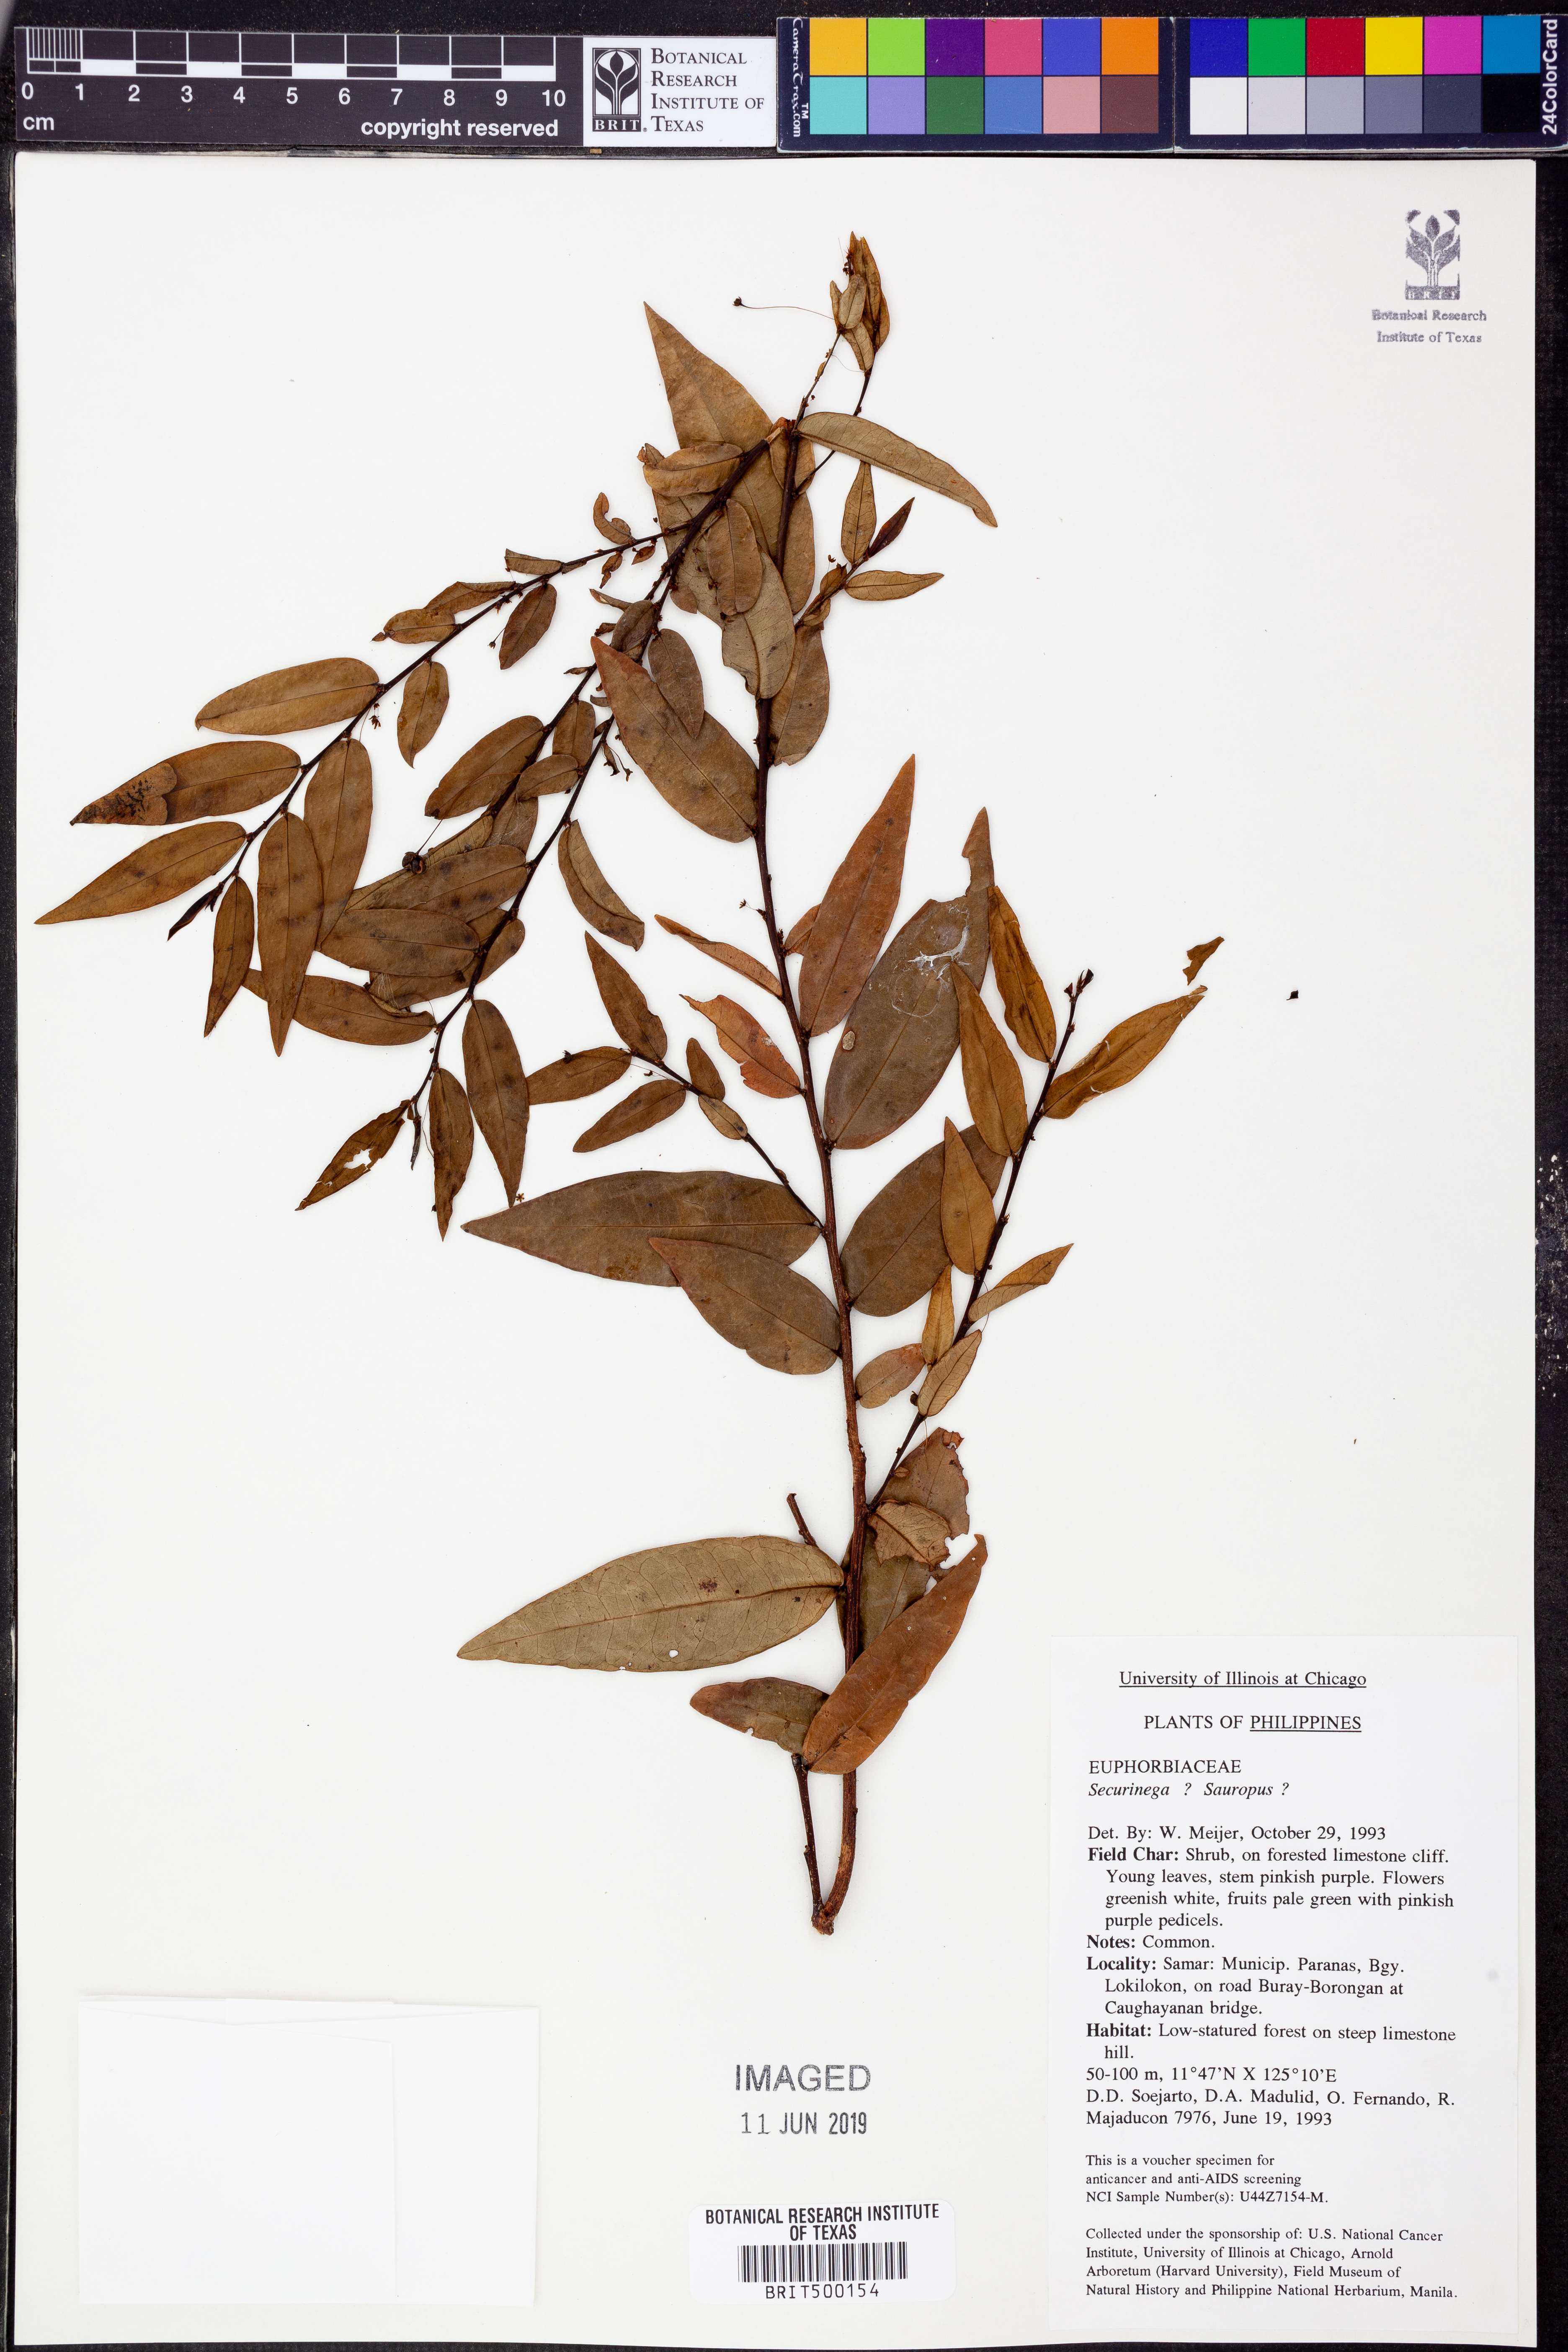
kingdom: Plantae
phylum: Tracheophyta
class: Magnoliopsida
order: Malpighiales
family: Euphorbiaceae
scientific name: Euphorbiaceae
